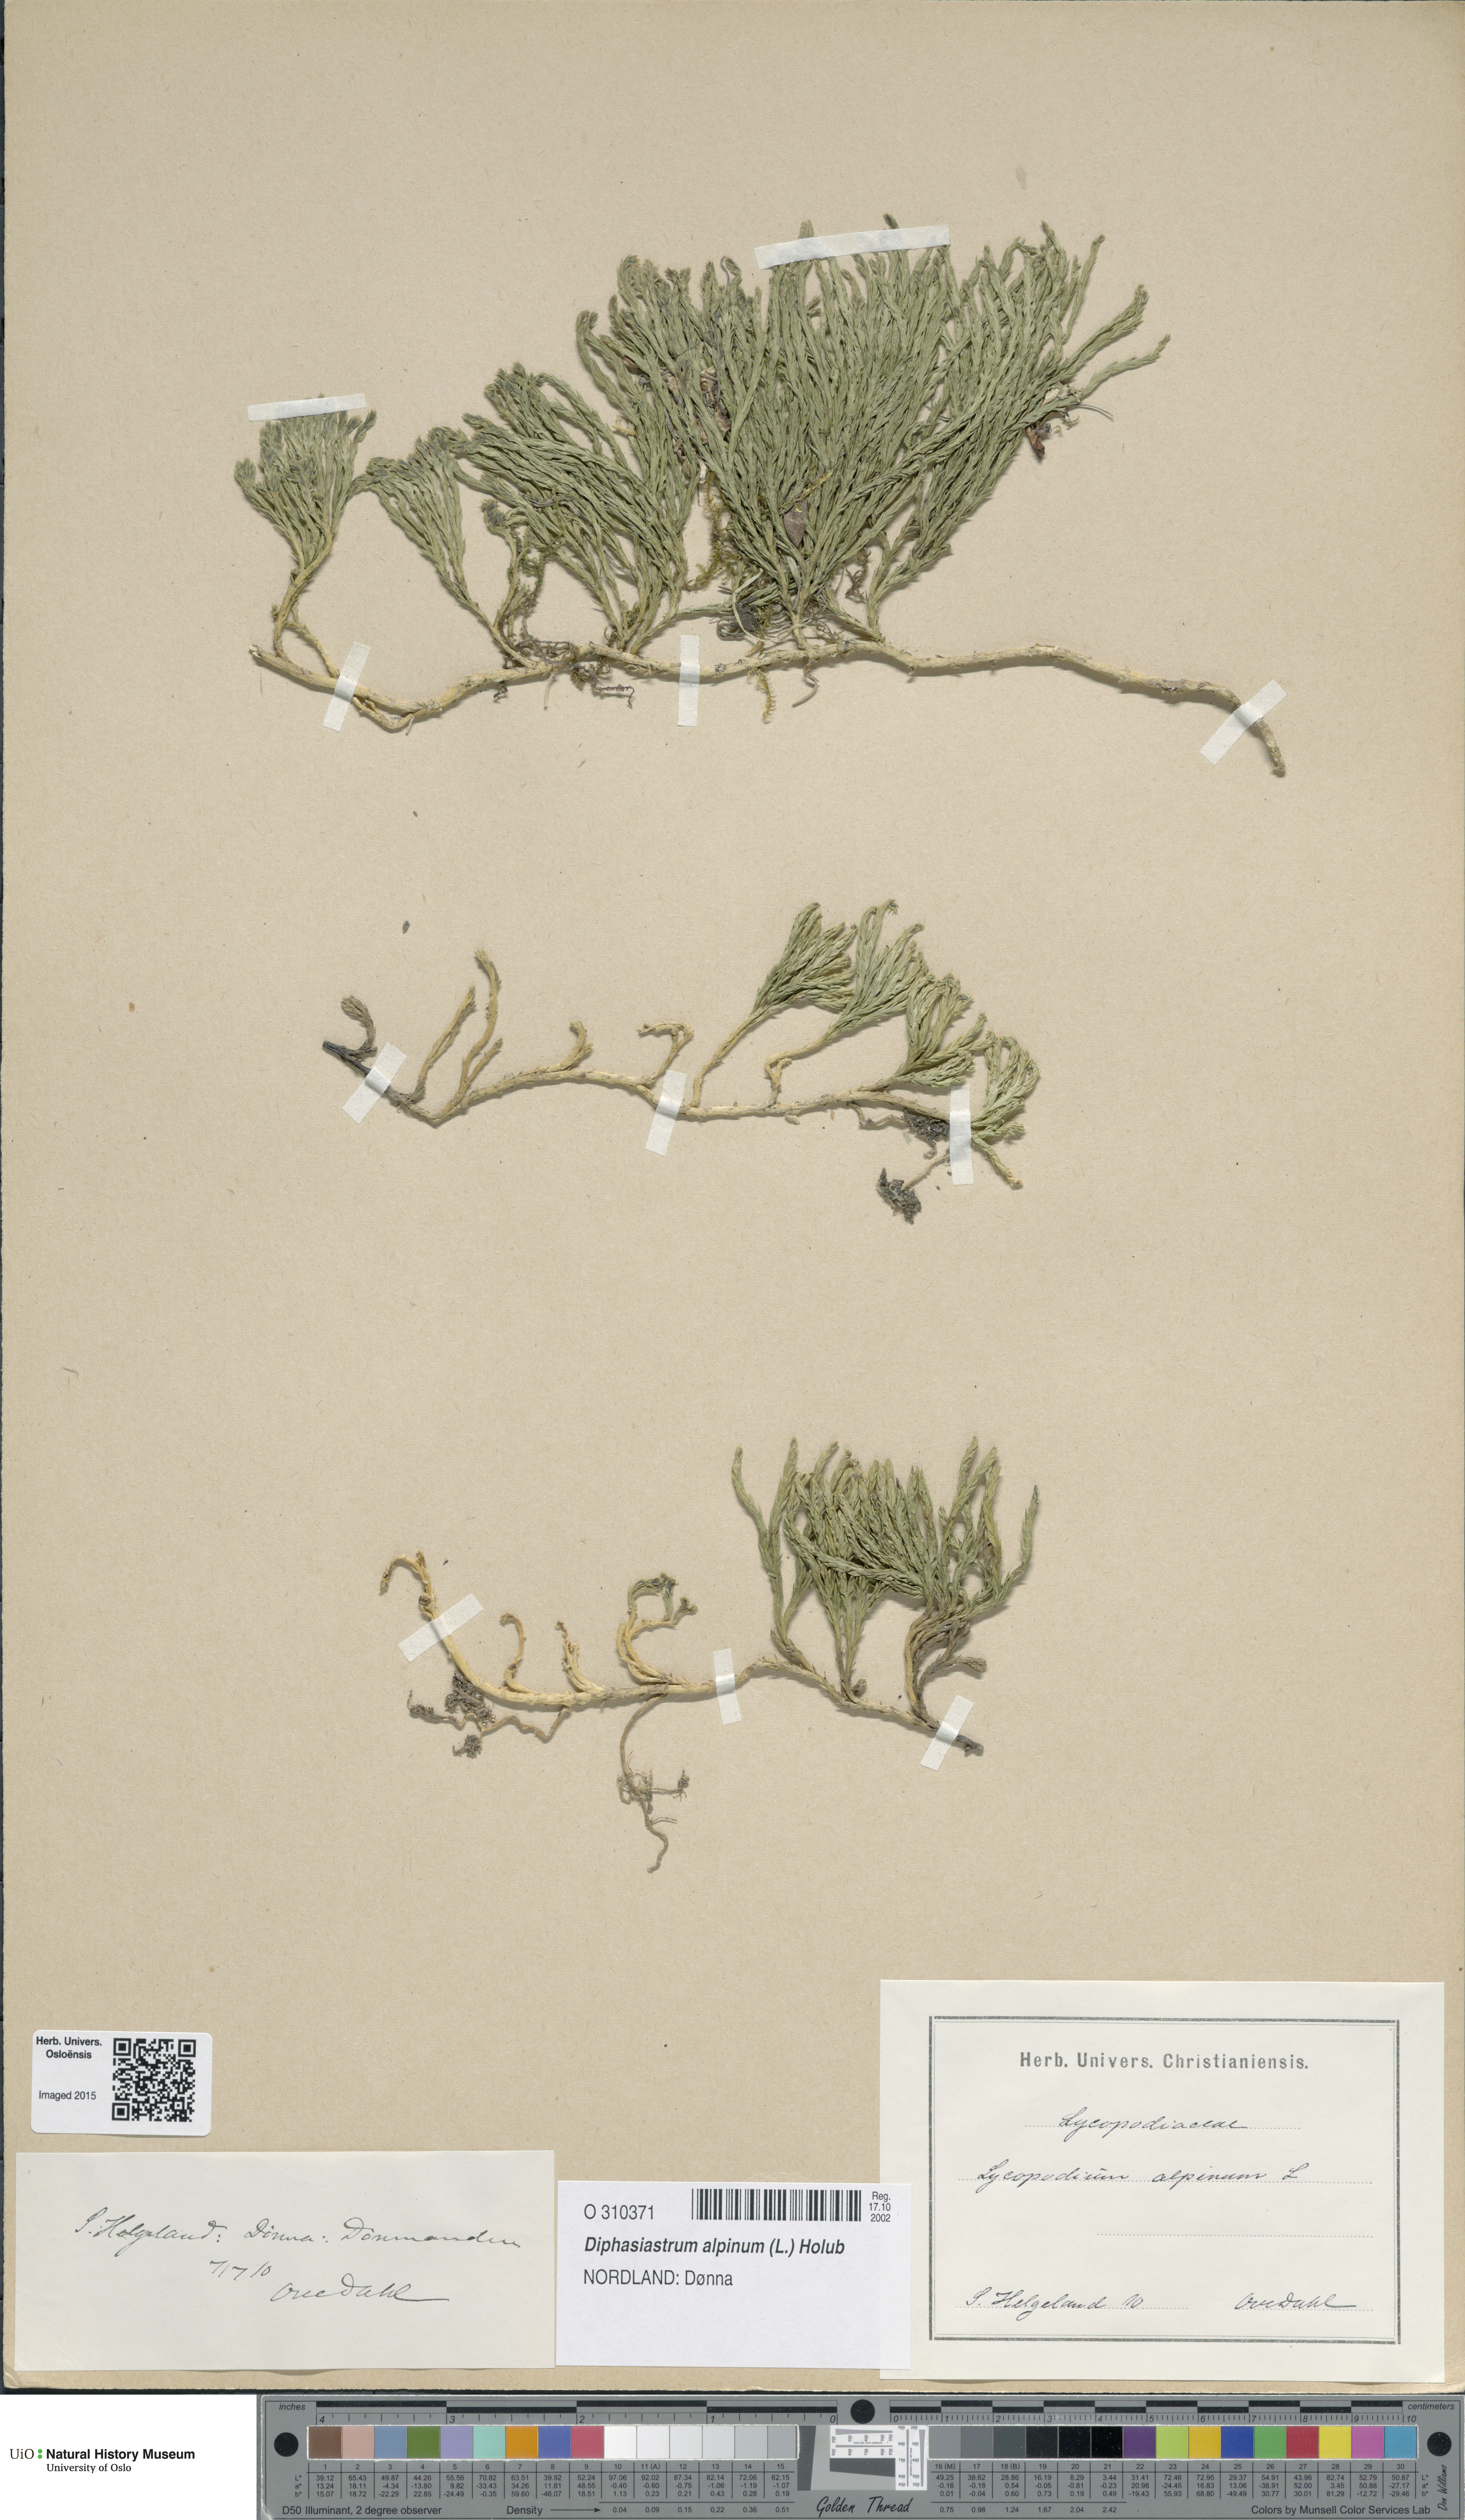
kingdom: Plantae
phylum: Tracheophyta
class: Lycopodiopsida
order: Lycopodiales
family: Lycopodiaceae
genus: Diphasiastrum
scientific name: Diphasiastrum alpinum
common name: Alpine clubmoss
